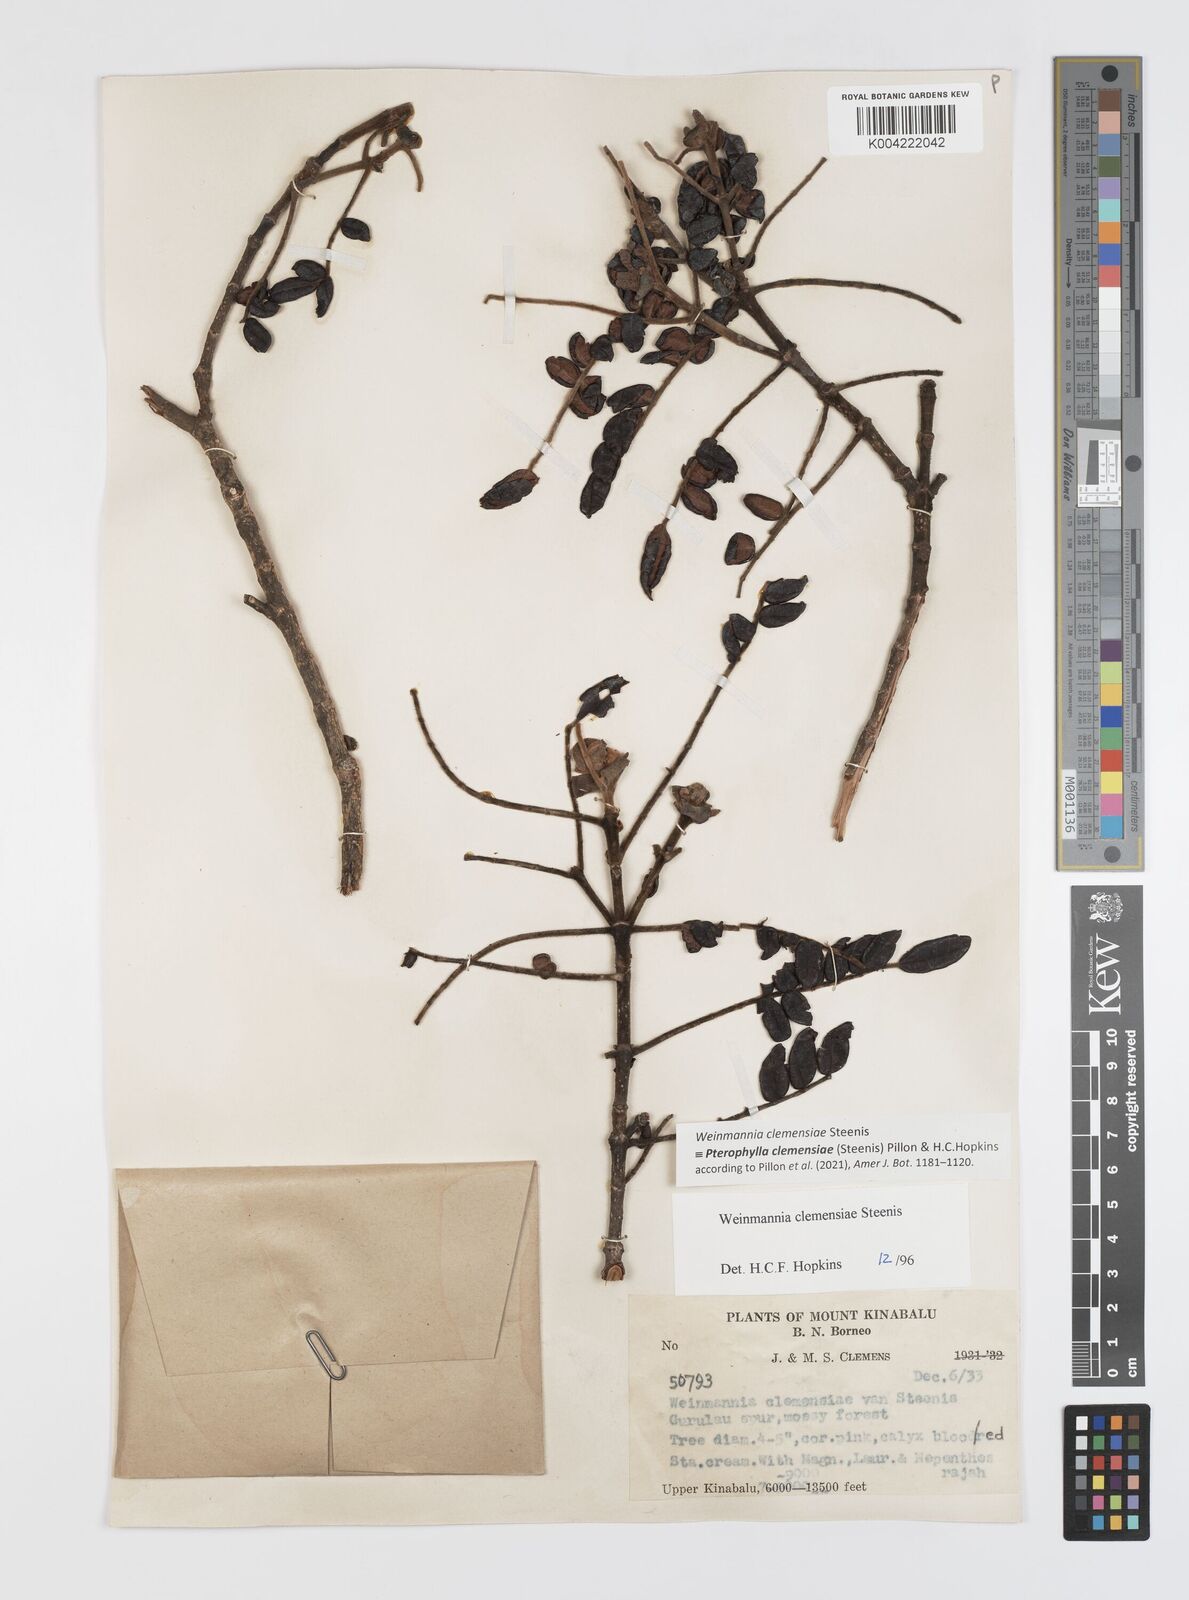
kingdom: Plantae
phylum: Tracheophyta
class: Magnoliopsida
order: Oxalidales
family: Cunoniaceae
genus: Pterophylla
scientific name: Pterophylla clemensiae
